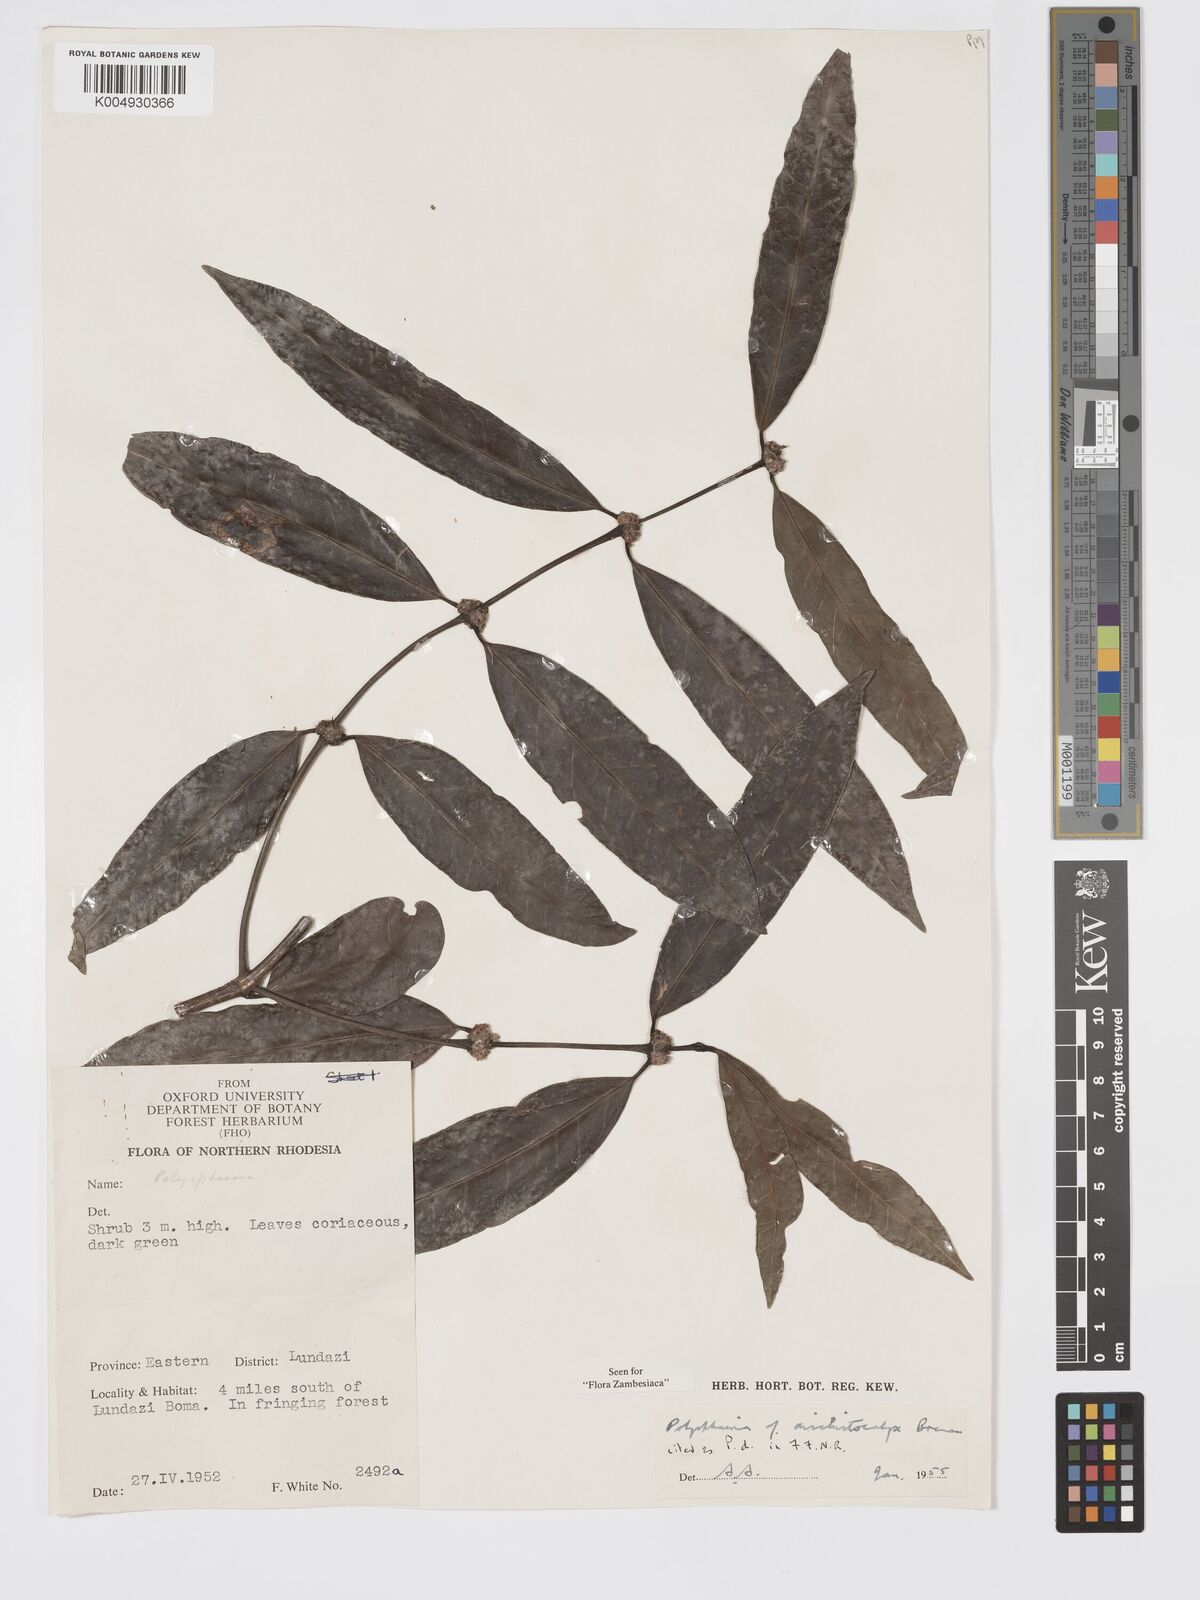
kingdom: Plantae
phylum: Tracheophyta
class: Magnoliopsida
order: Gentianales
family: Rubiaceae
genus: Polysphaeria
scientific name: Polysphaeria dischistocalyx
